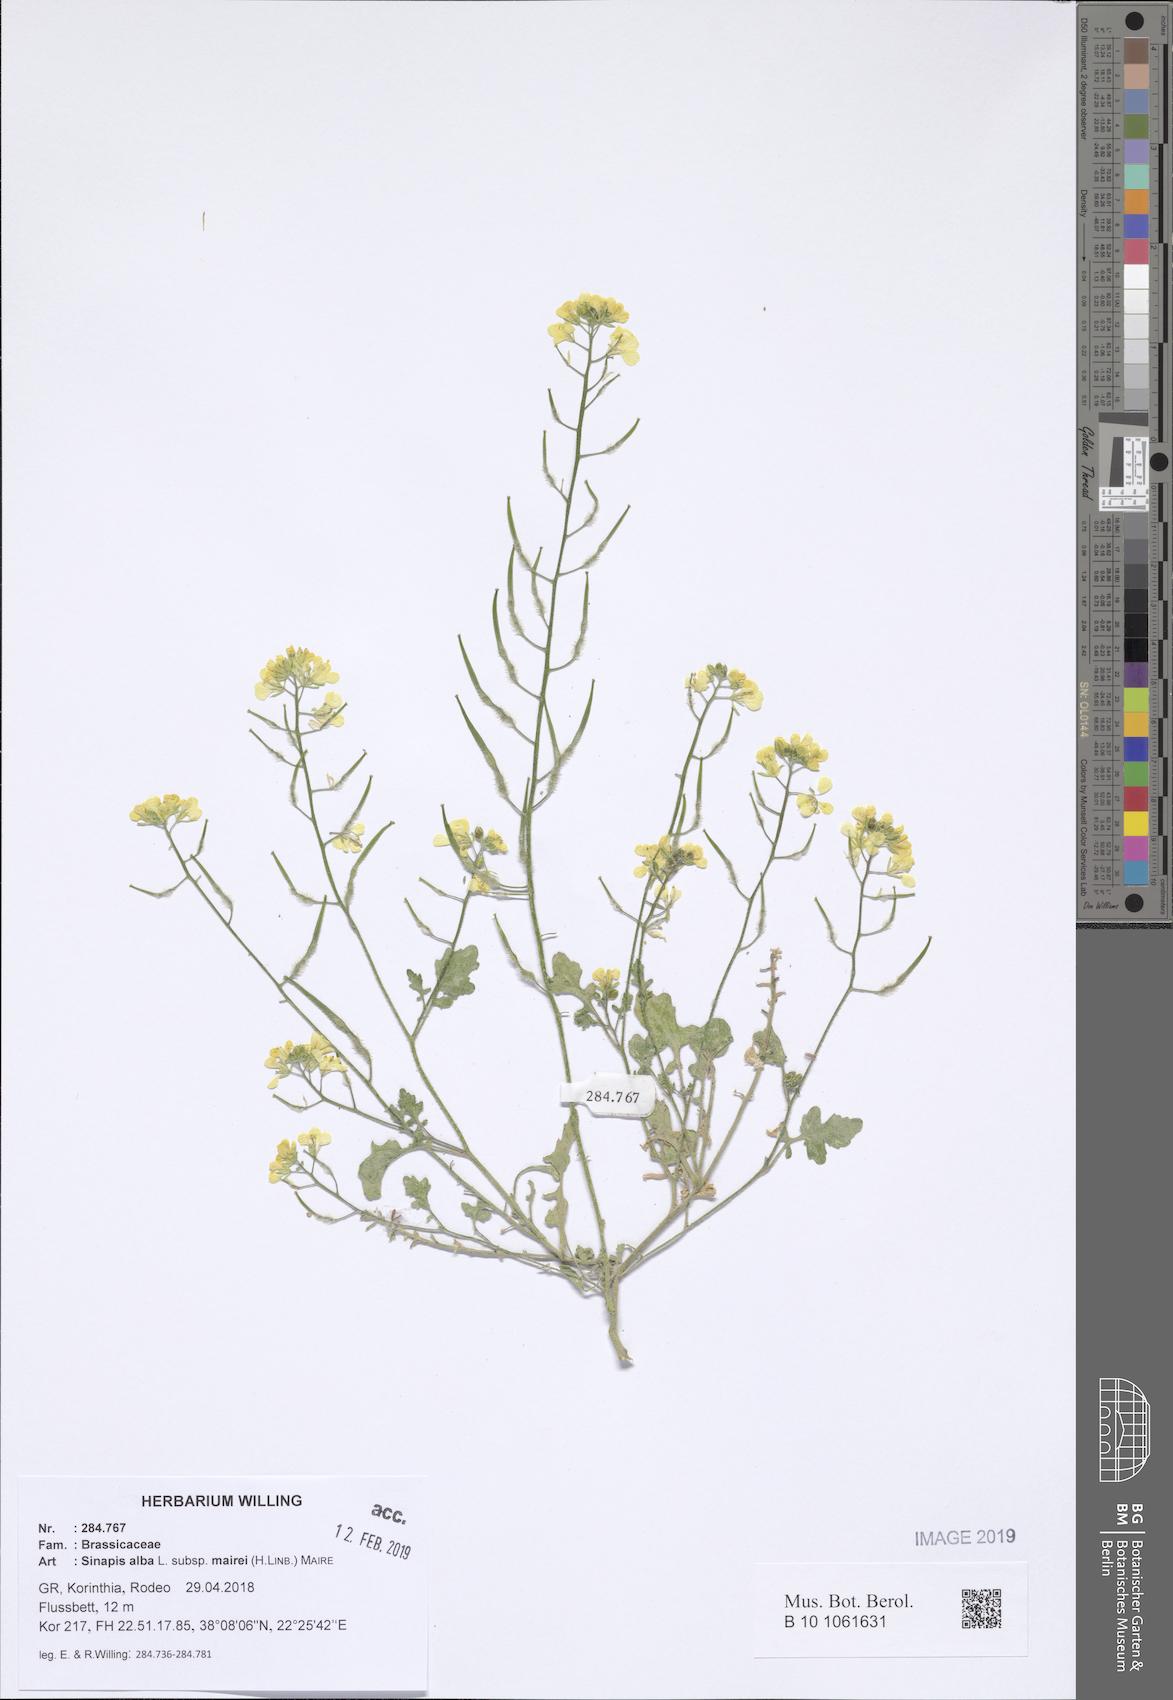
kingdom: Plantae
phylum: Tracheophyta
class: Magnoliopsida
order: Brassicales
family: Brassicaceae
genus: Sinapis
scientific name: Sinapis alba
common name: White mustard
